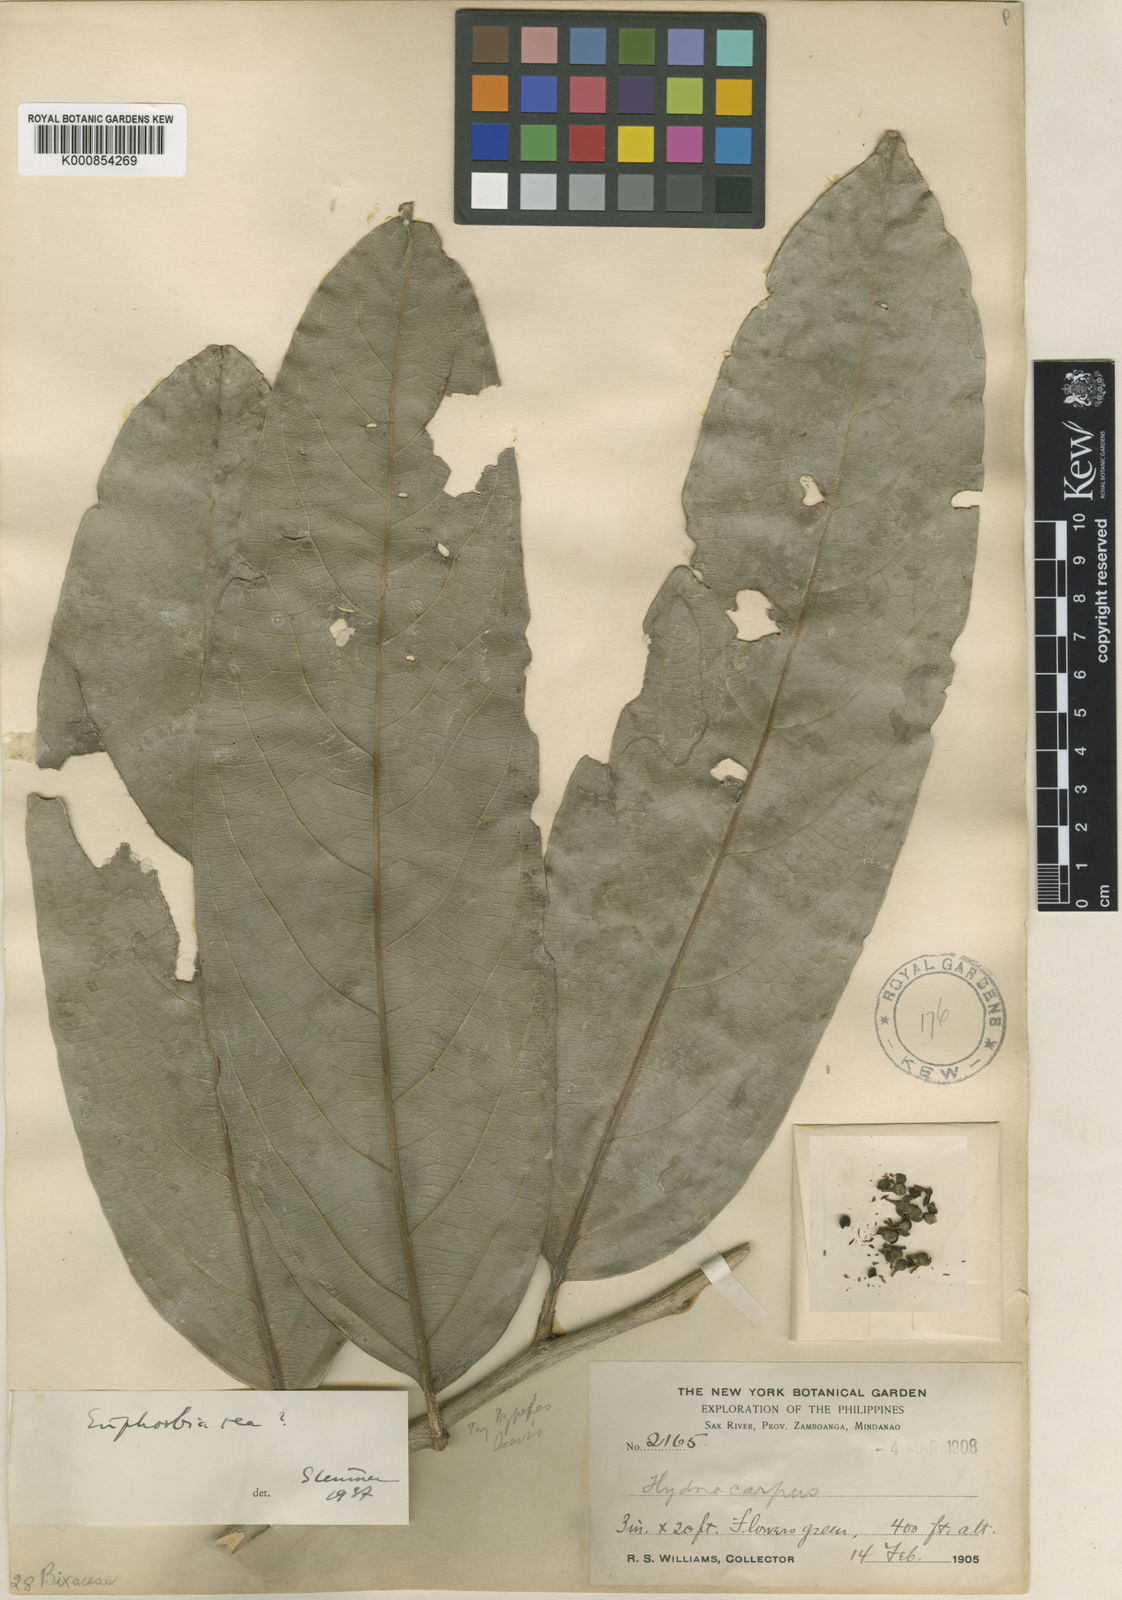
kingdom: Plantae
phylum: Tracheophyta
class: Magnoliopsida
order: Malpighiales
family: Putranjivaceae
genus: Drypetes
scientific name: Drypetes grandifolia
